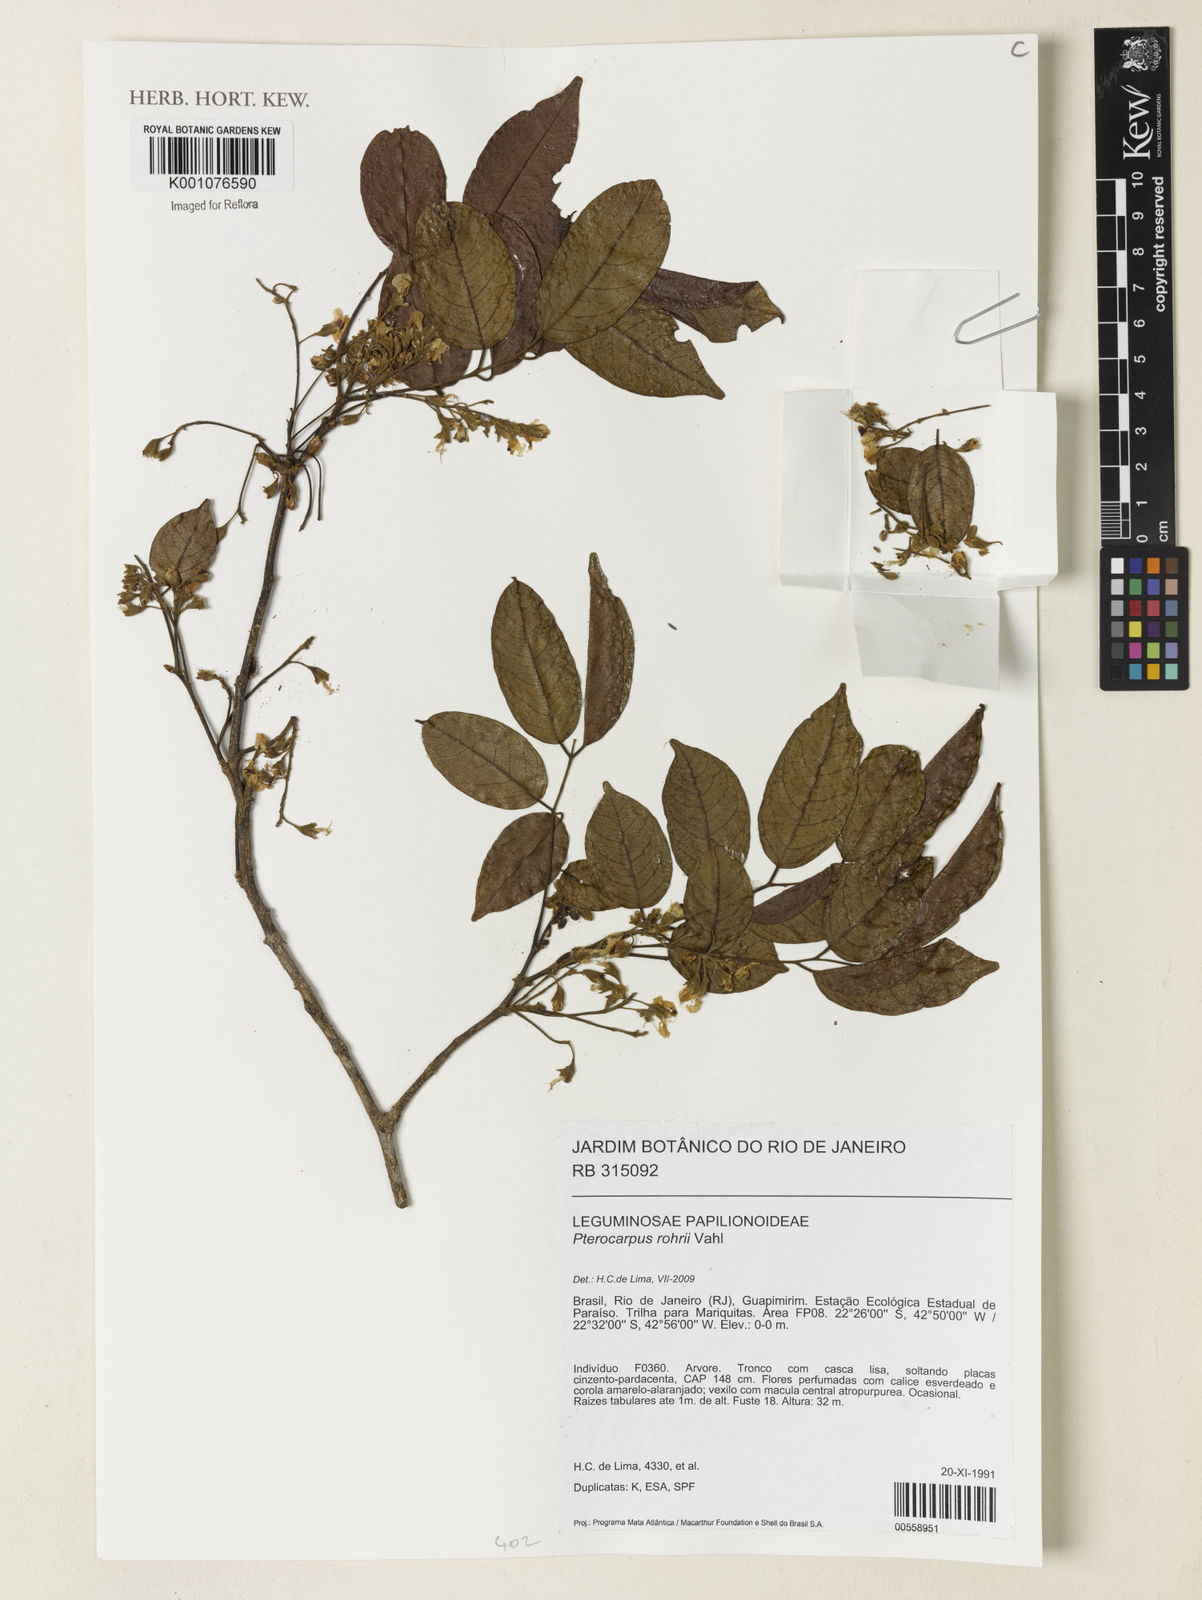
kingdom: Plantae
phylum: Tracheophyta
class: Magnoliopsida
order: Fabales
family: Fabaceae
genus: Pterocarpus
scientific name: Pterocarpus
